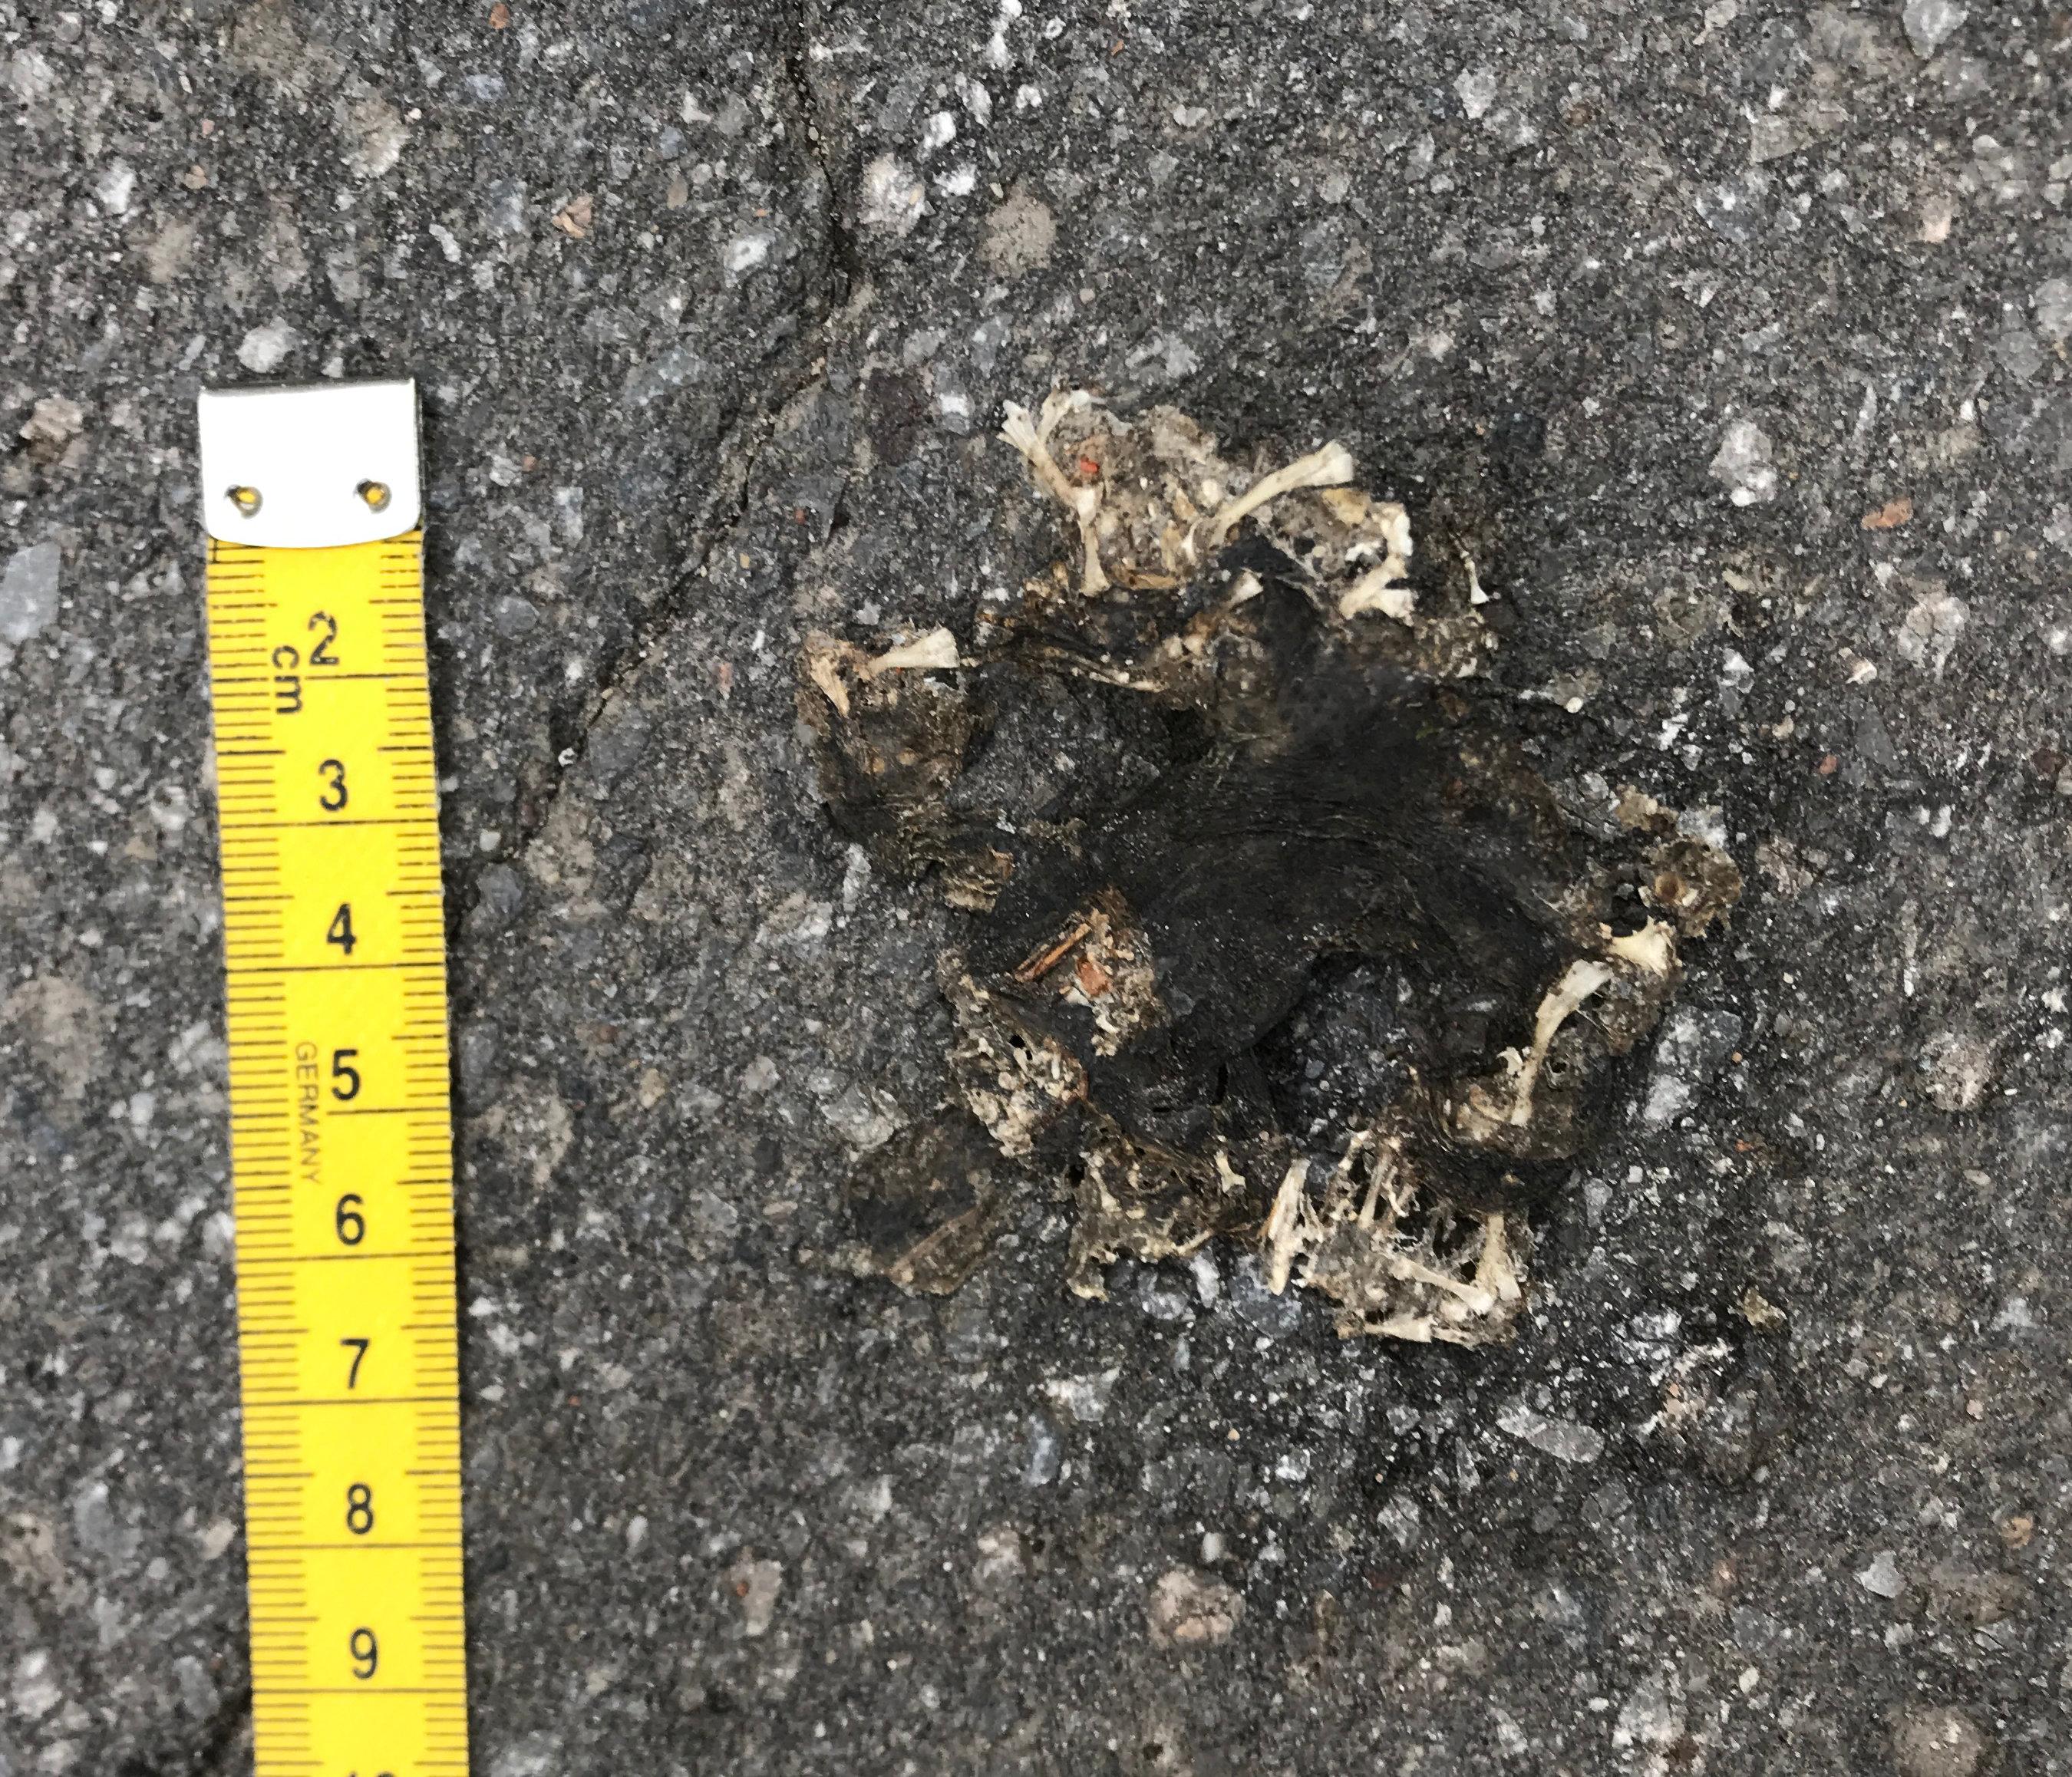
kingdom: Animalia
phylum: Chordata
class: Amphibia
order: Anura
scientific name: Anura
